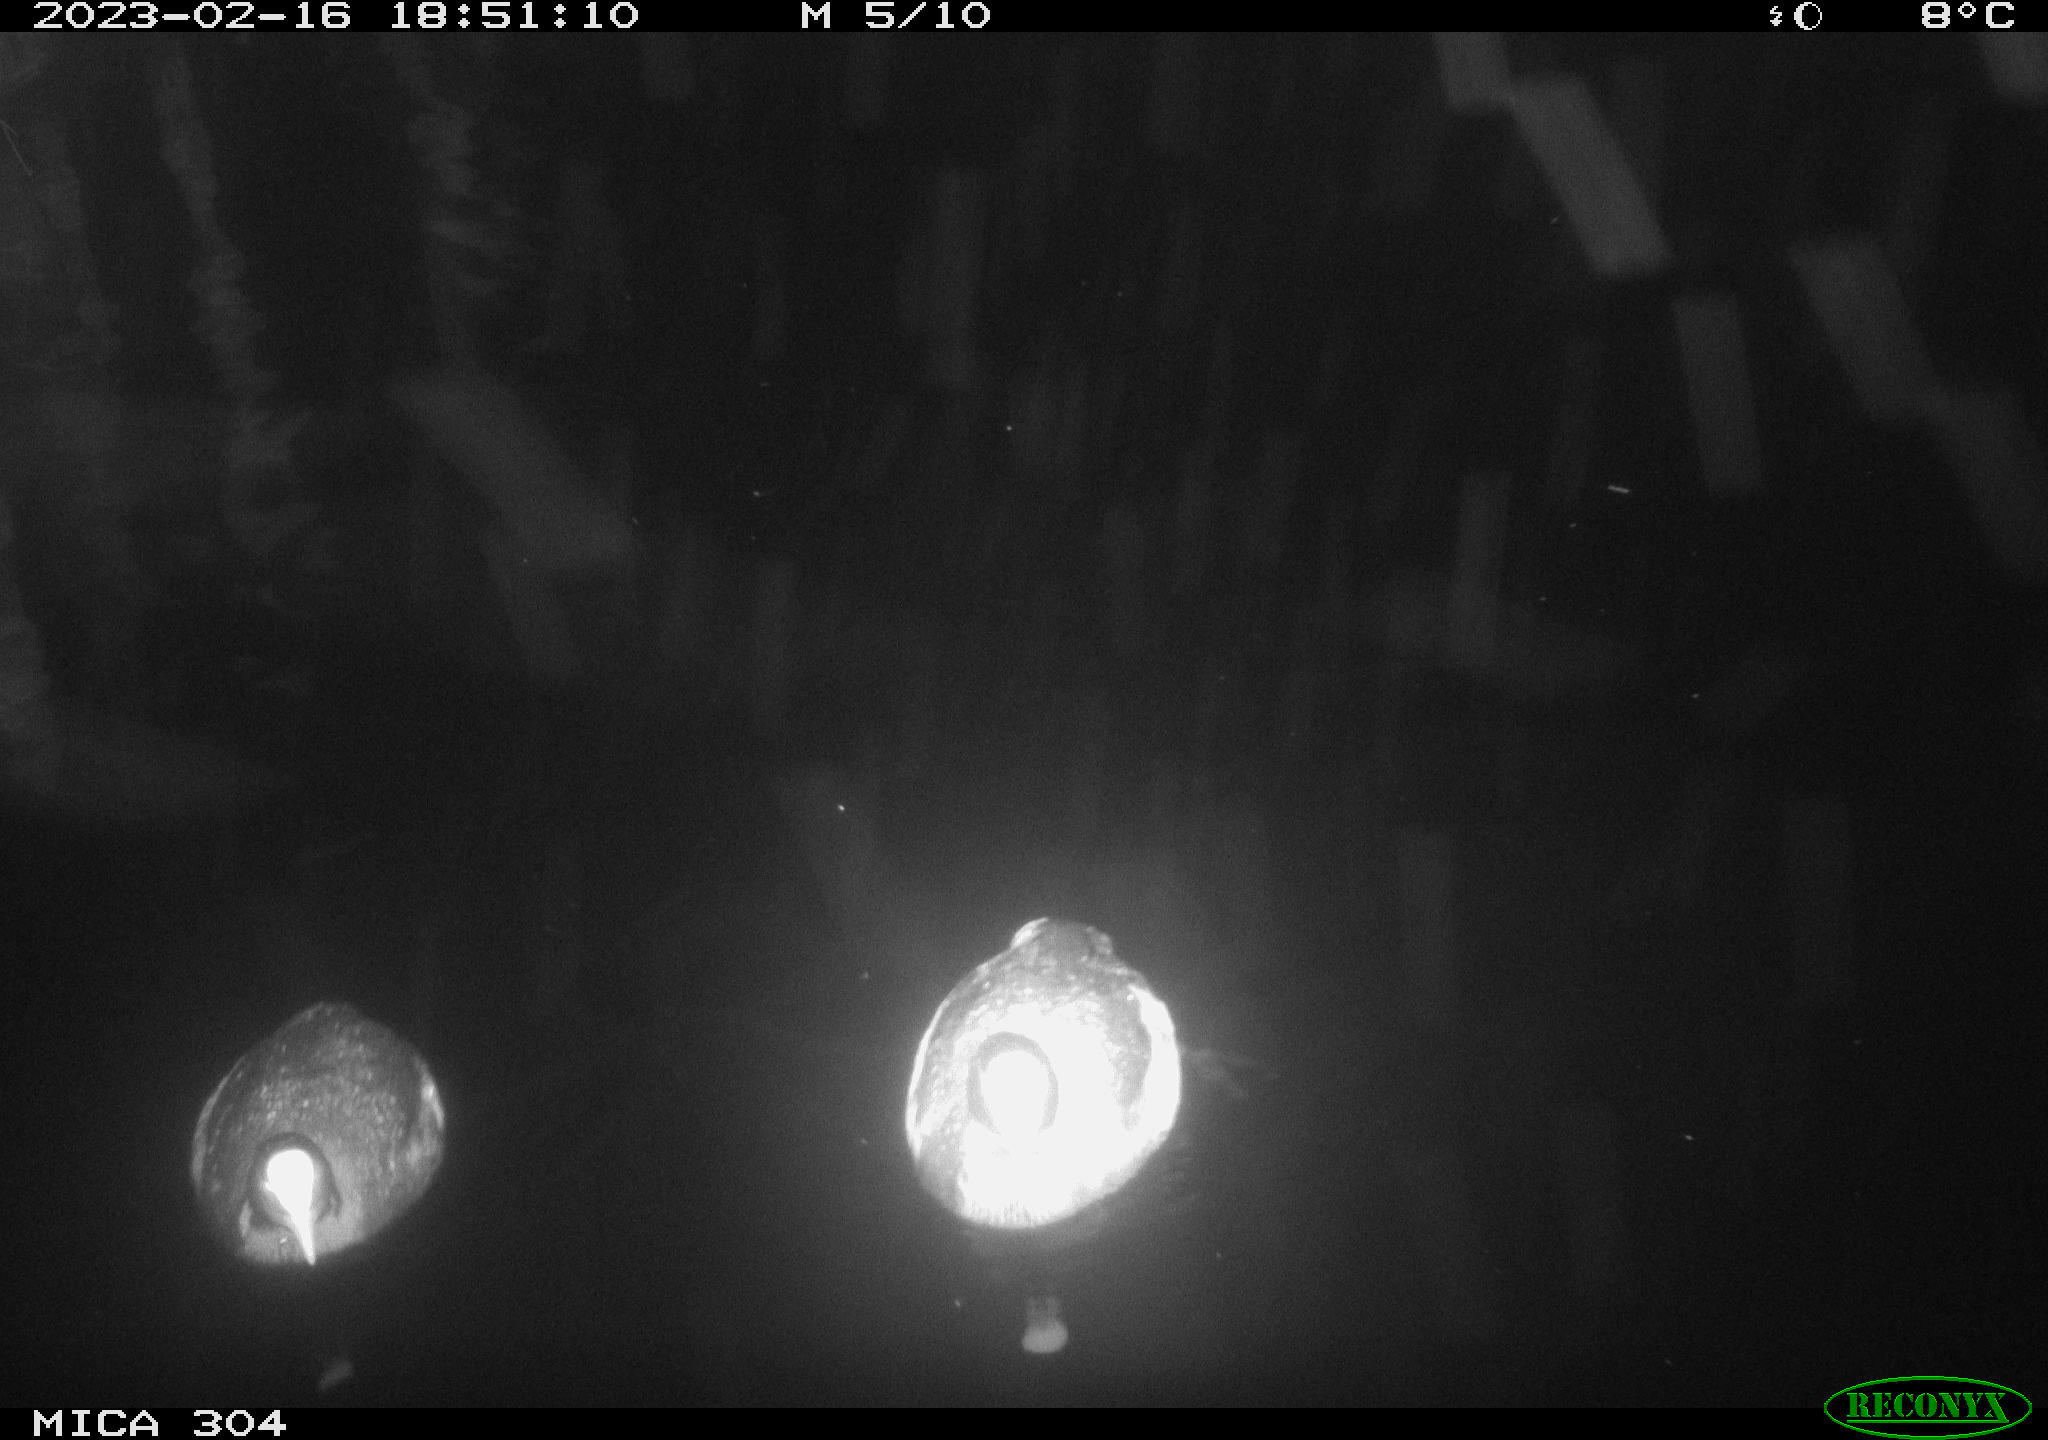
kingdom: Animalia
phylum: Chordata
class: Aves
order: Gruiformes
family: Rallidae
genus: Fulica
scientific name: Fulica atra
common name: Eurasian coot
